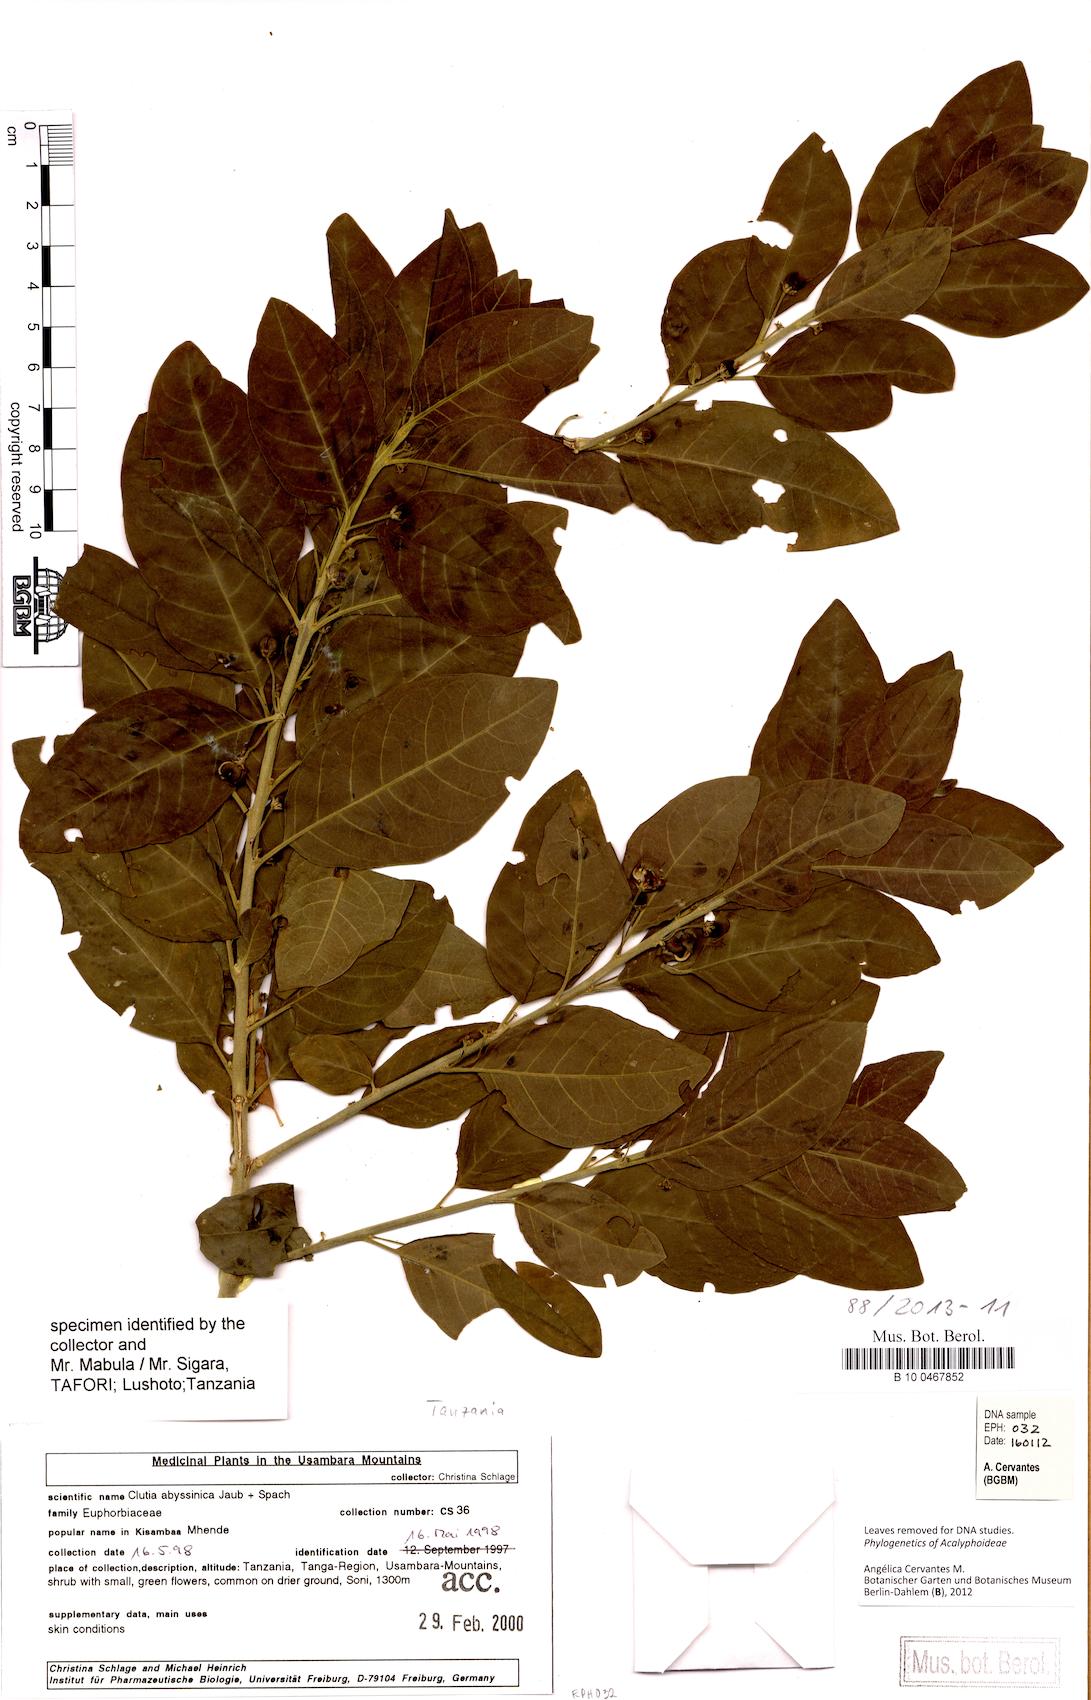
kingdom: Plantae
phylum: Tracheophyta
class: Magnoliopsida
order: Malpighiales
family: Peraceae
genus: Clutia
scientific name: Clutia abyssinica
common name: Large lightning bush
